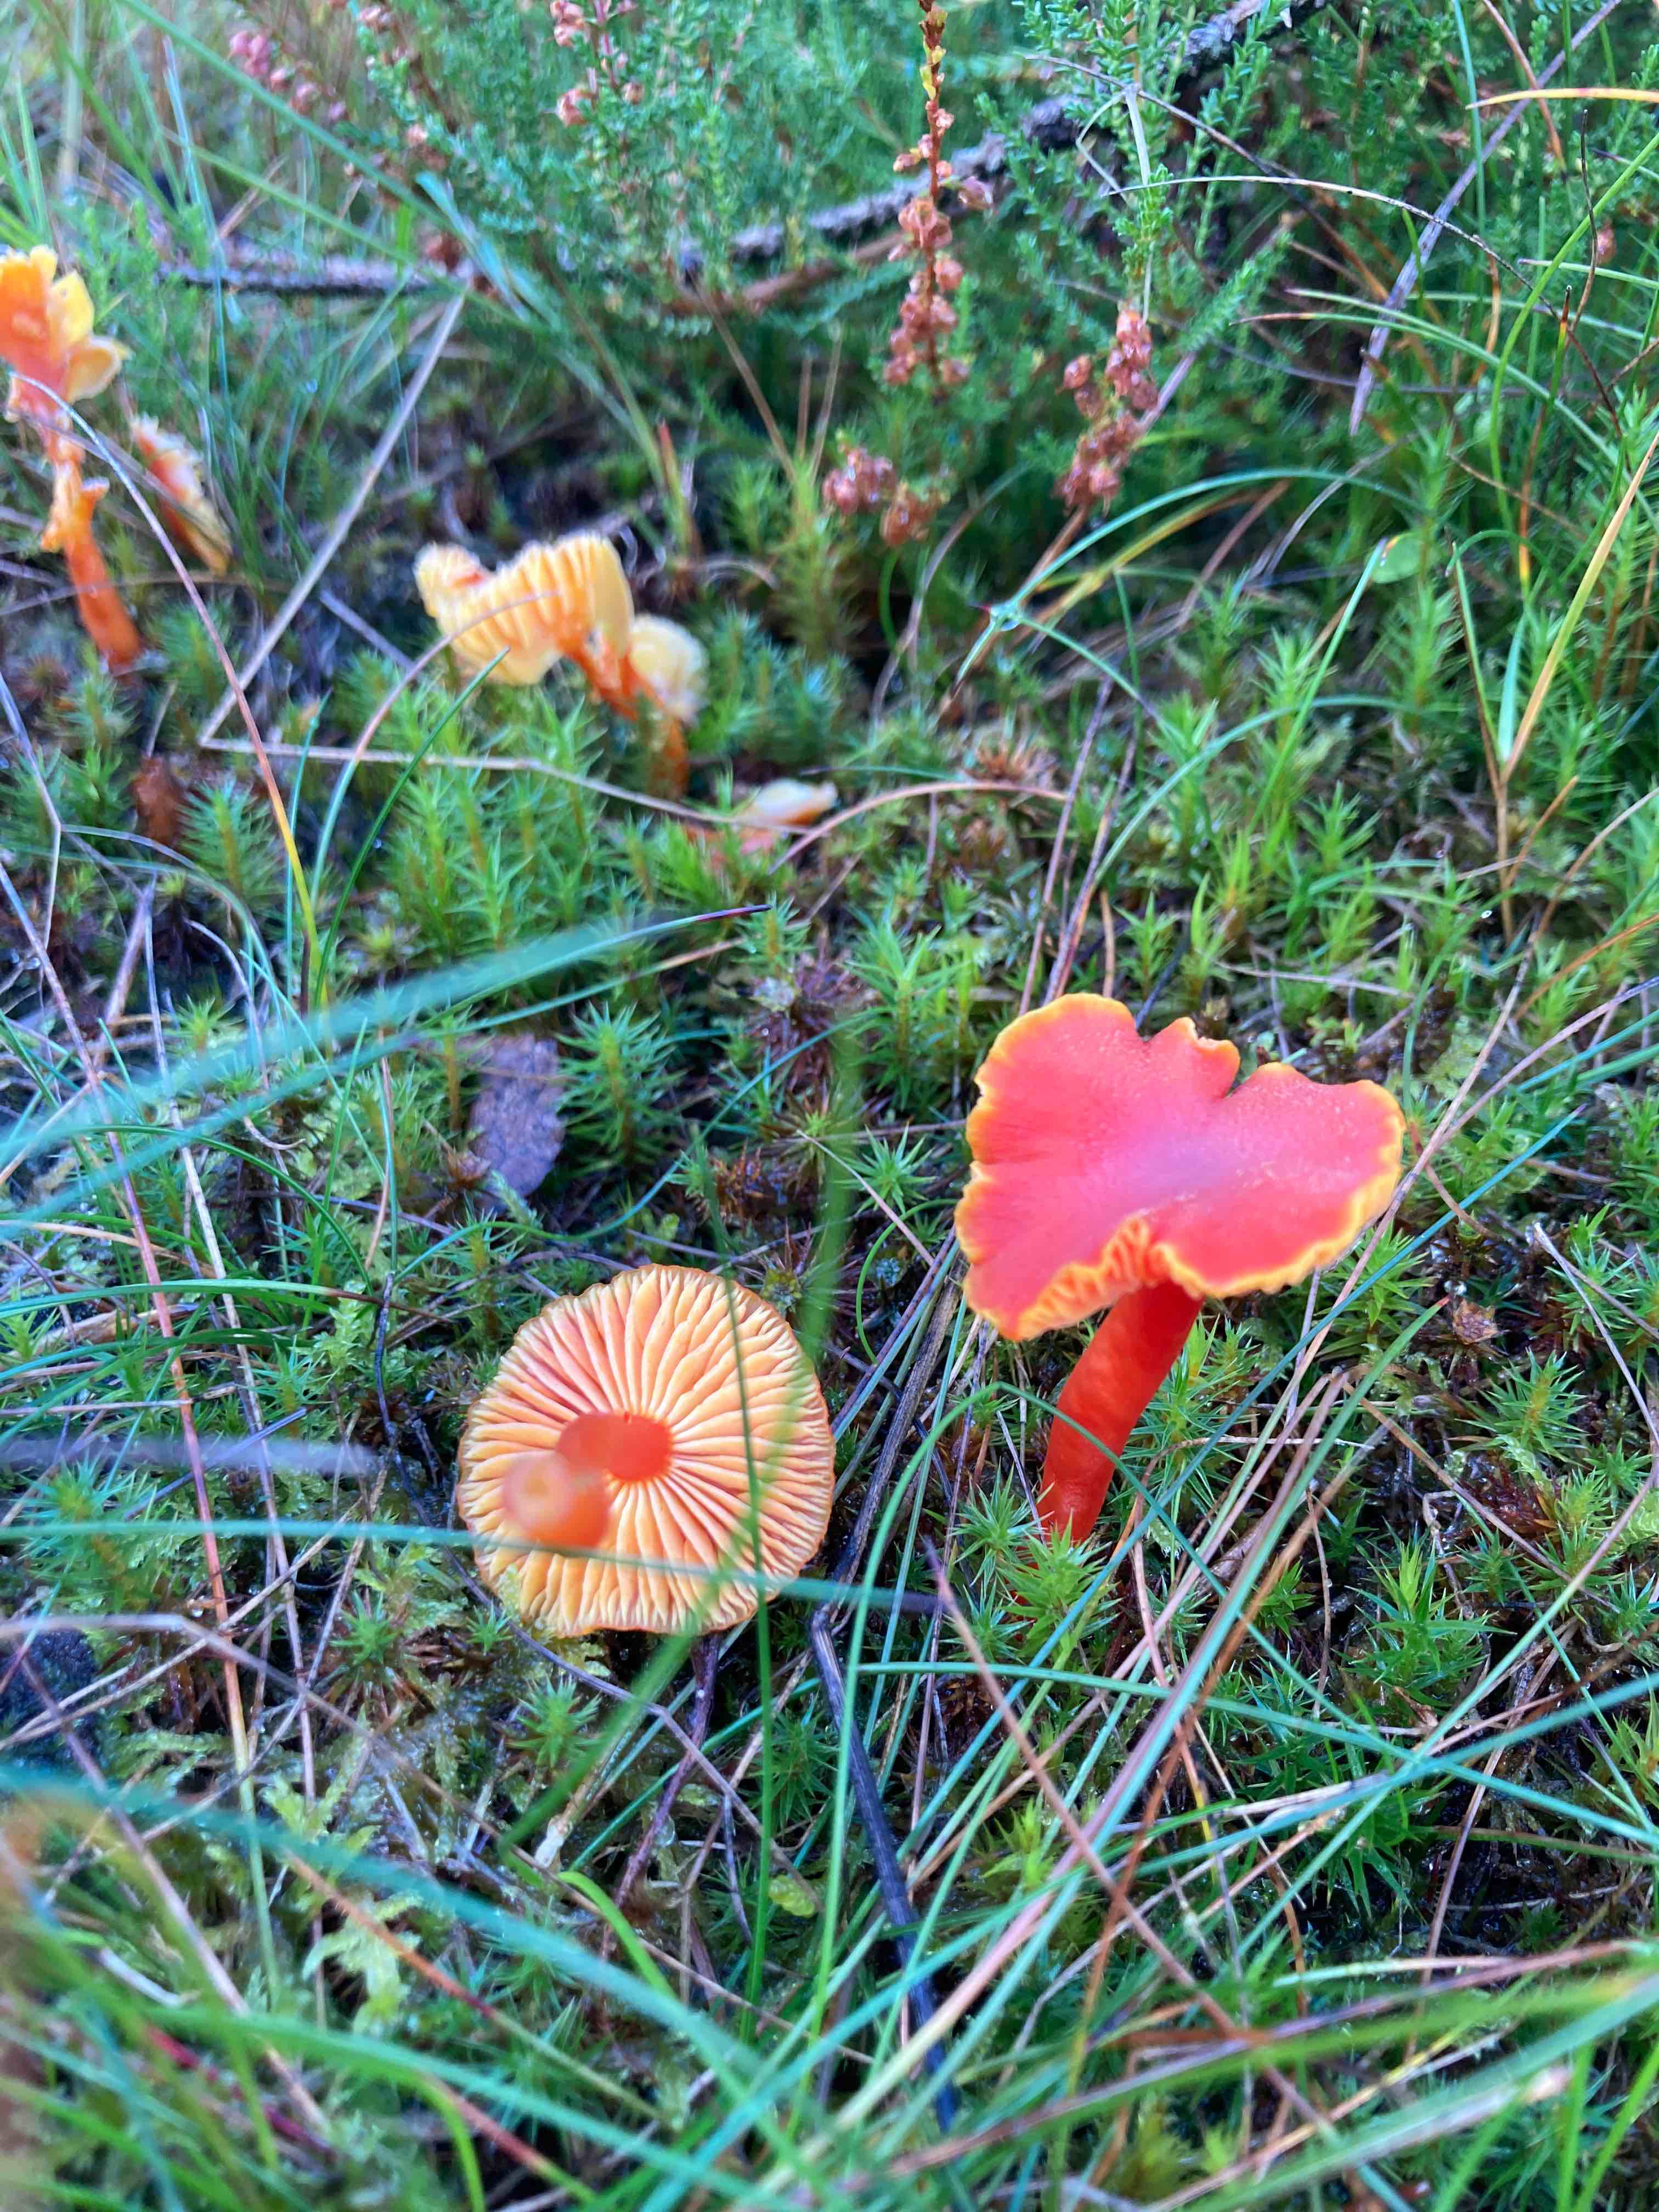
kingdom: Fungi
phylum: Basidiomycota
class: Agaricomycetes
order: Agaricales
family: Hygrophoraceae
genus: Hygrocybe
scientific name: Hygrocybe miniata
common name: mønje-vokshat
